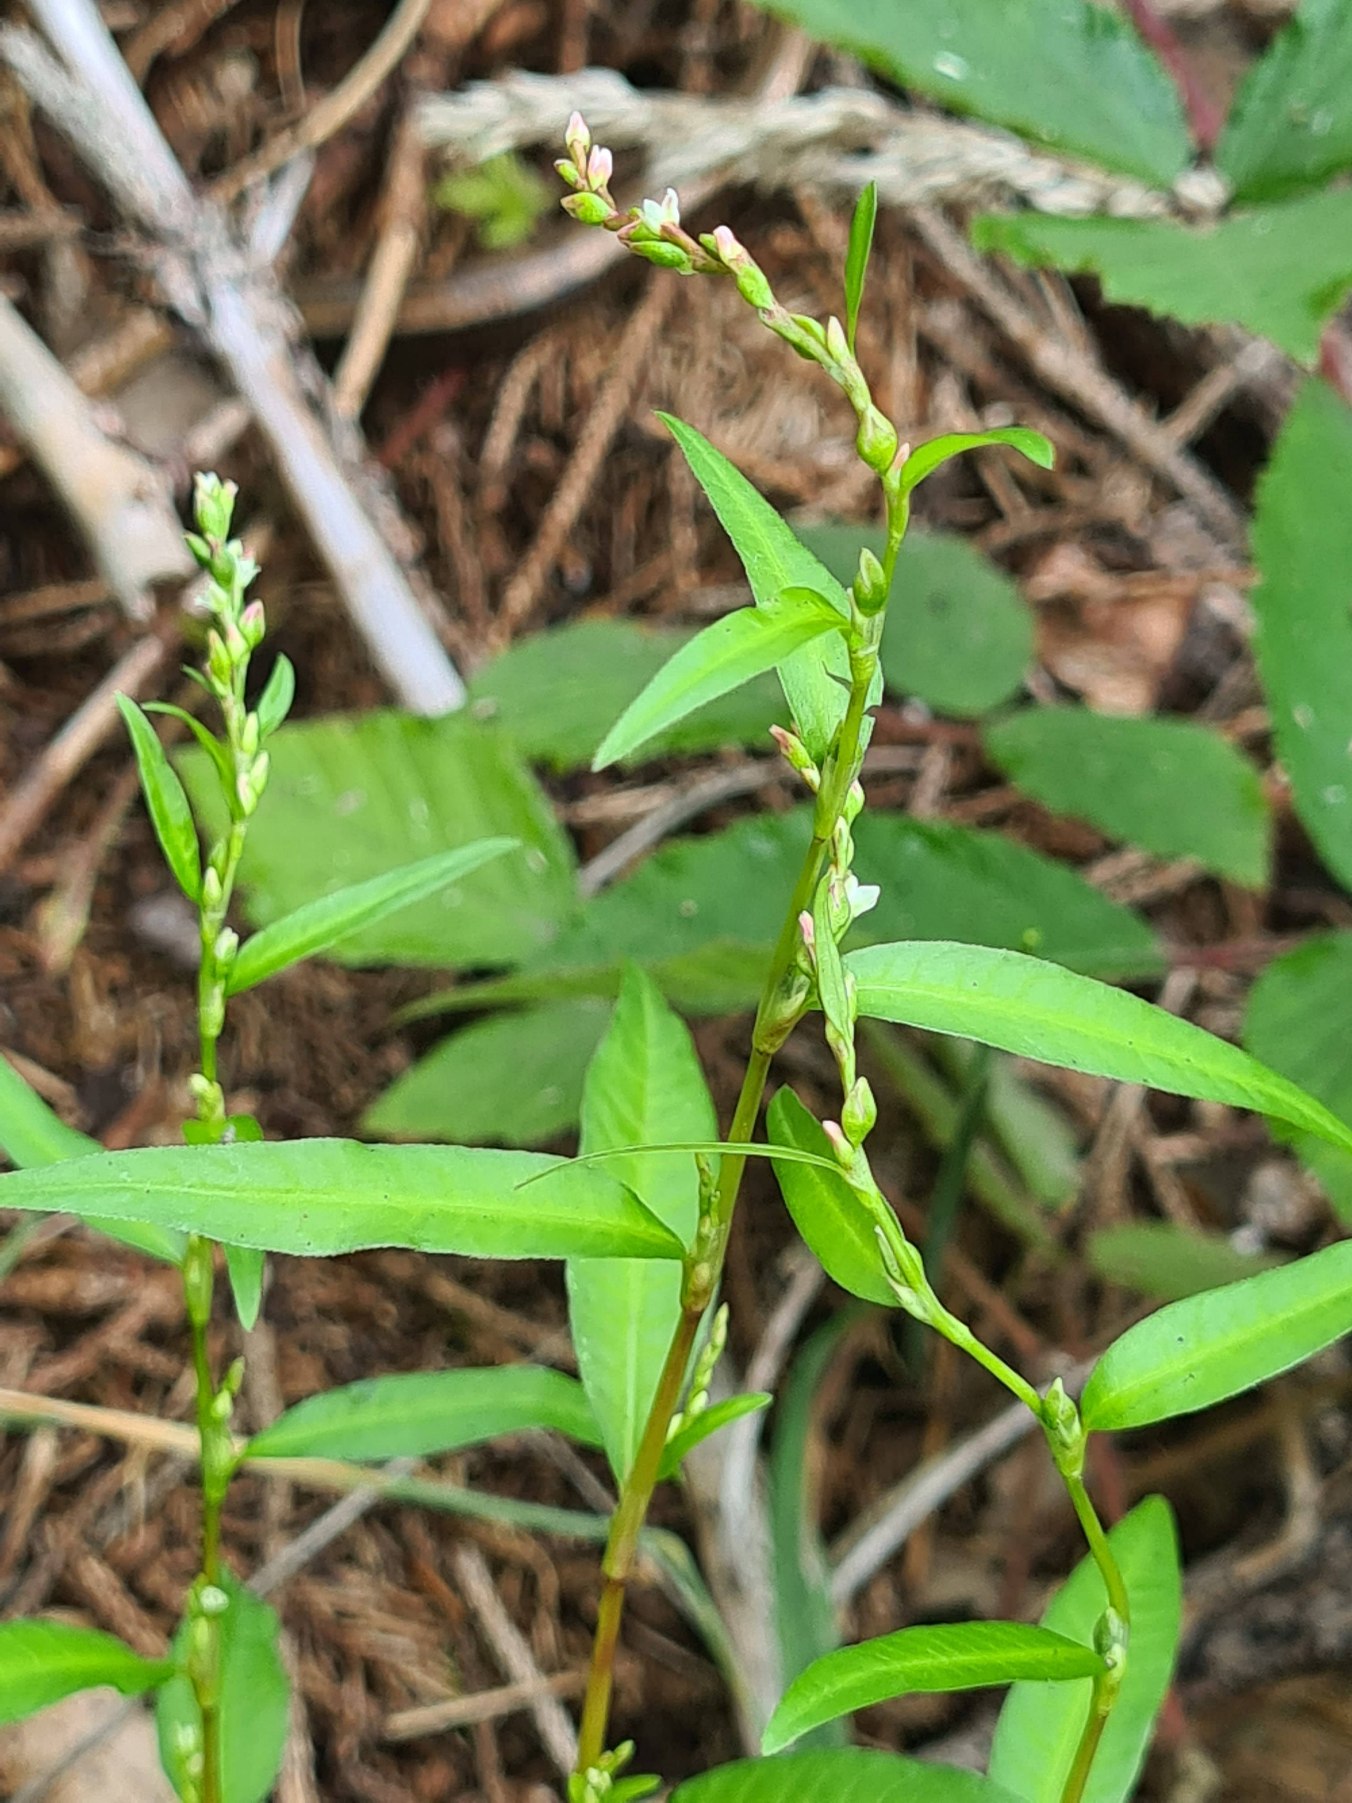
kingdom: Plantae
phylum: Tracheophyta
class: Magnoliopsida
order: Caryophyllales
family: Polygonaceae
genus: Persicaria
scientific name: Persicaria hydropiper
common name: Bidende pileurt
